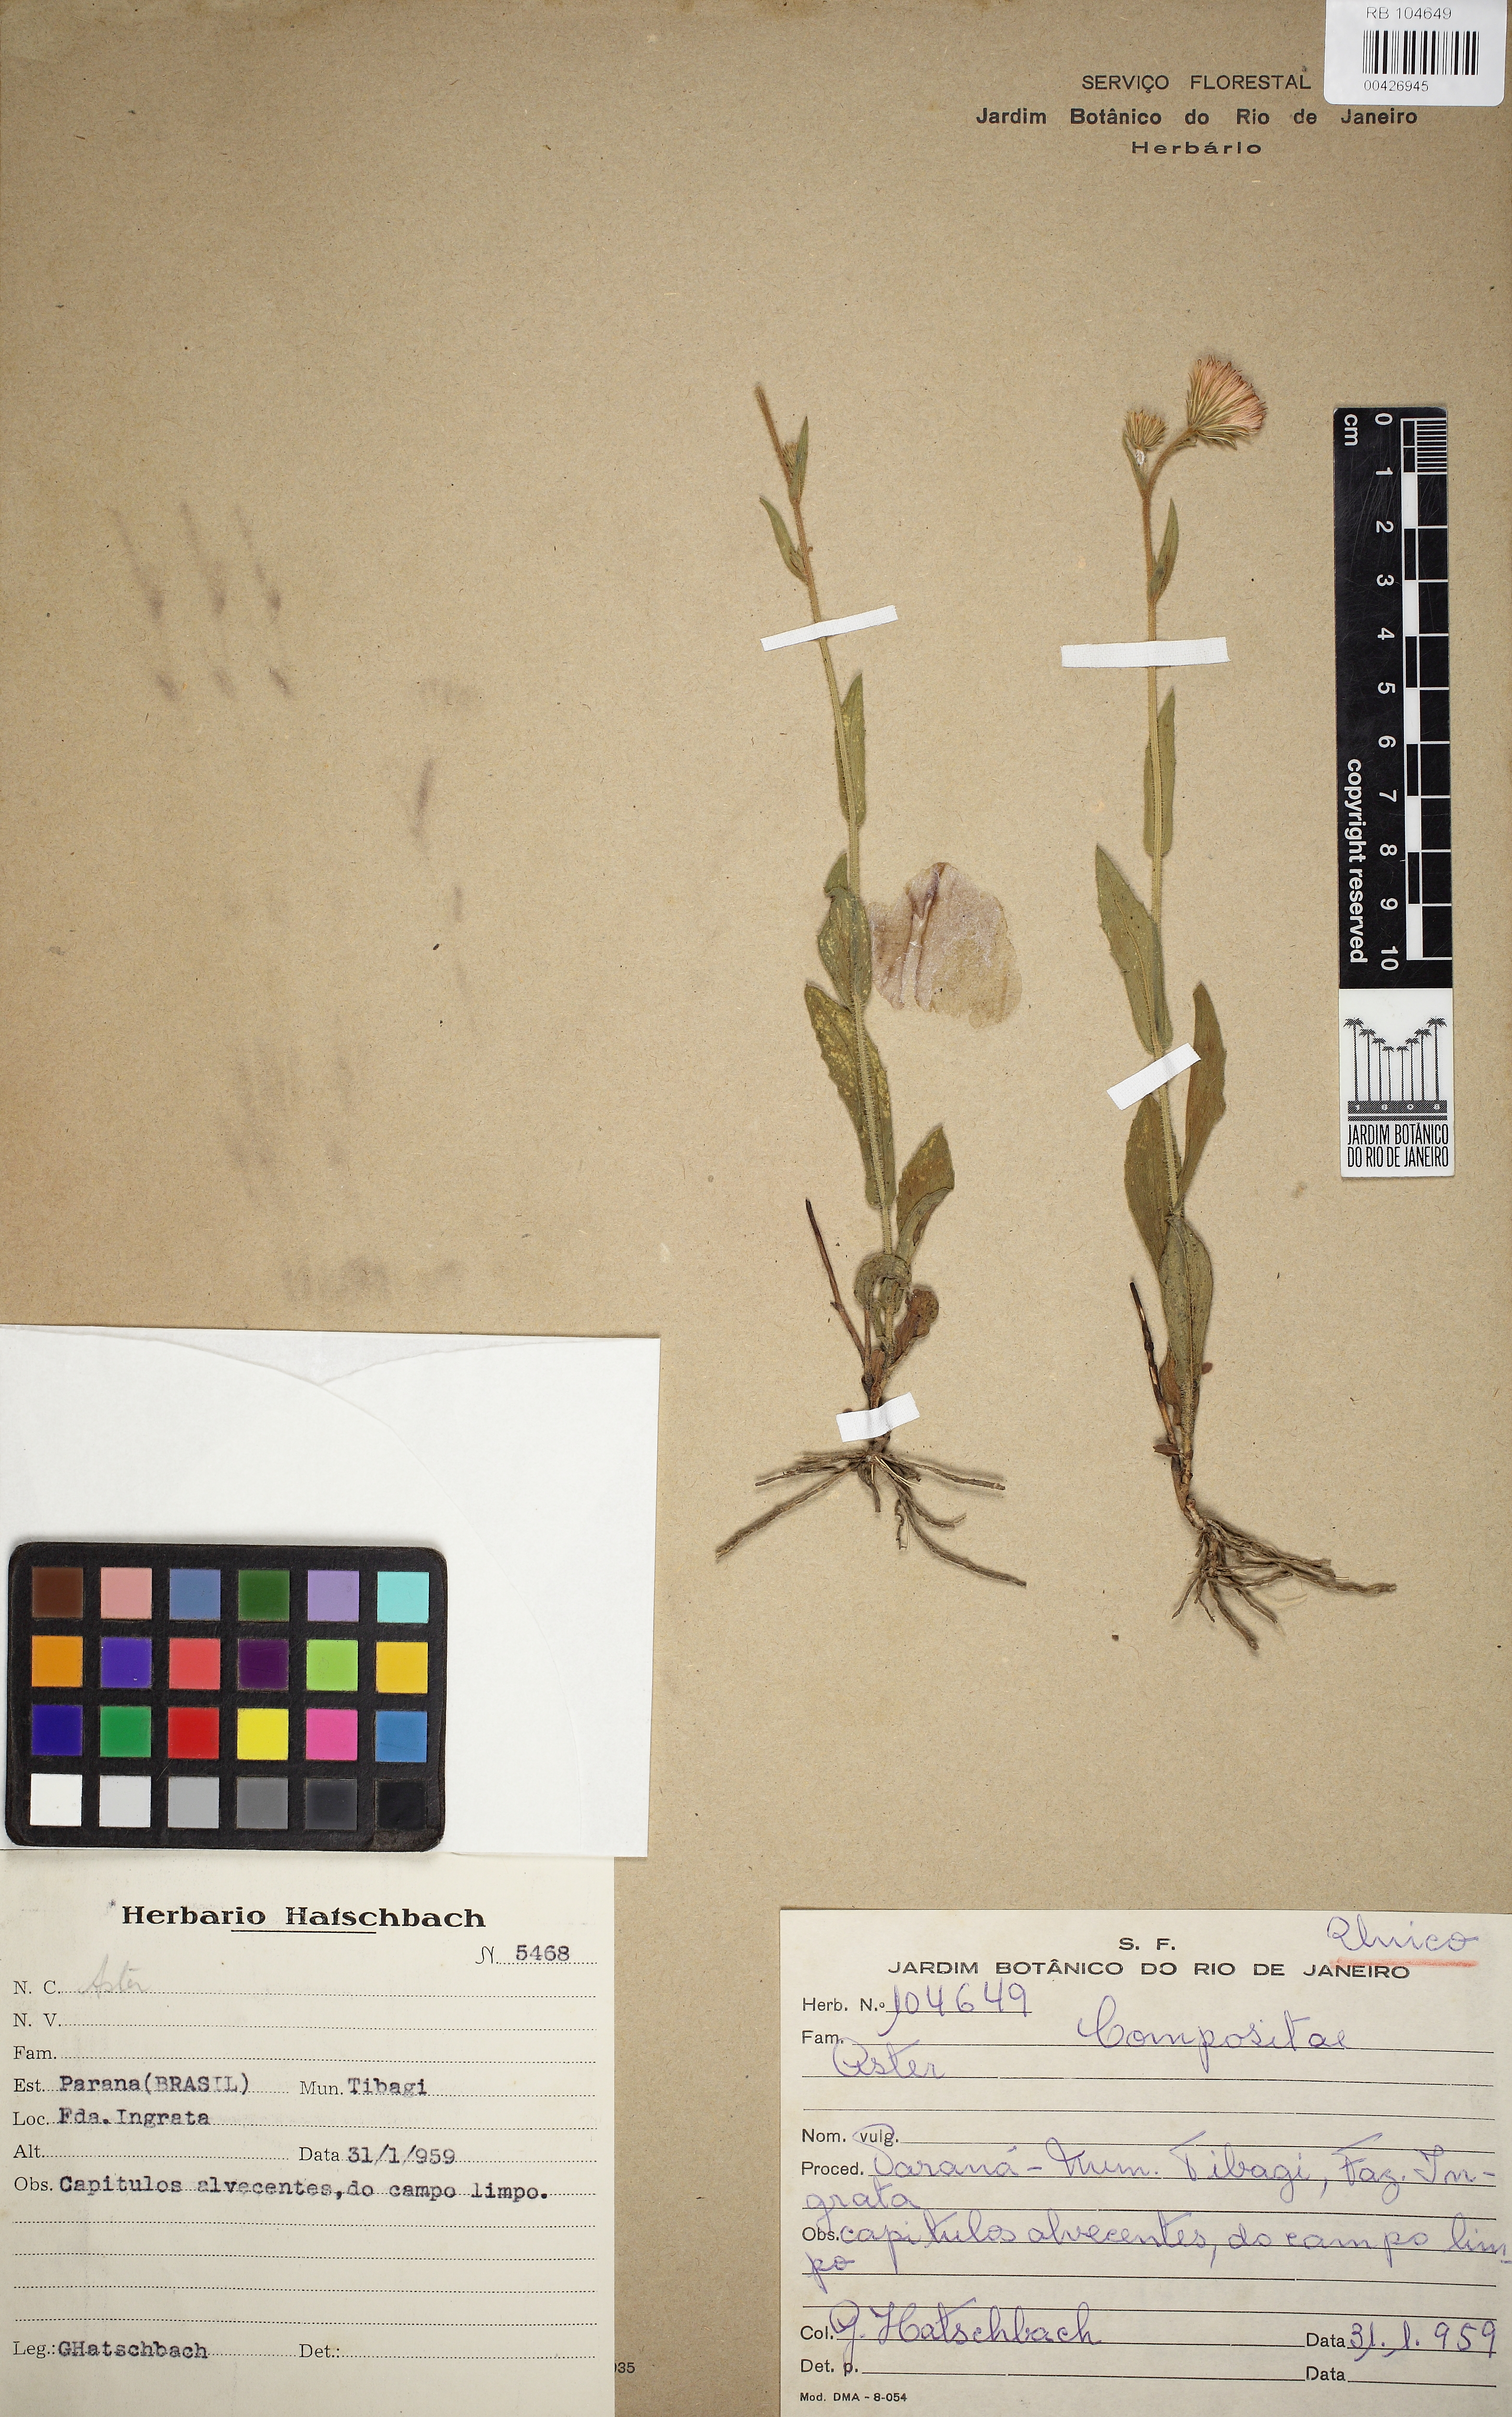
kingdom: Plantae
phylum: Tracheophyta
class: Magnoliopsida
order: Asterales
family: Asteraceae
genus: Podocoma
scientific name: Podocoma
